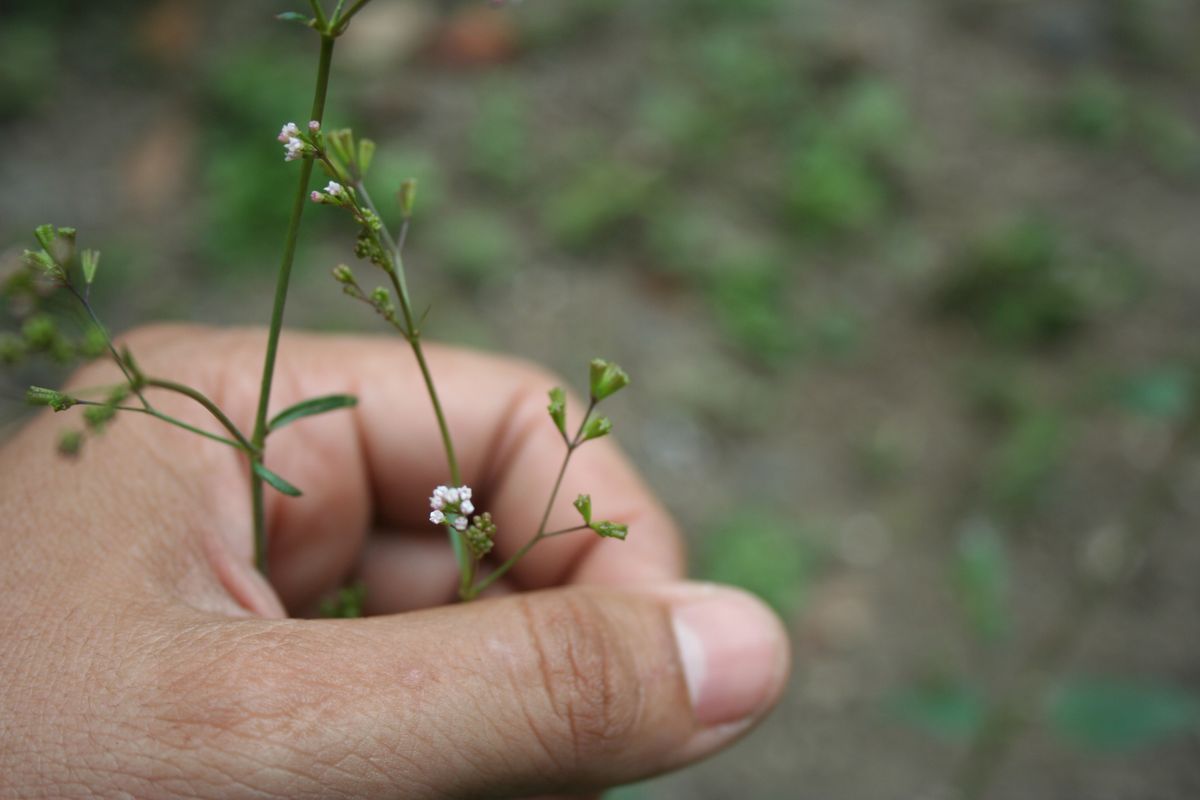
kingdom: Plantae
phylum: Tracheophyta
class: Magnoliopsida
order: Caryophyllales
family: Nyctaginaceae
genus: Boerhavia
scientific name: Boerhavia erecta
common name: Erect spiderling
